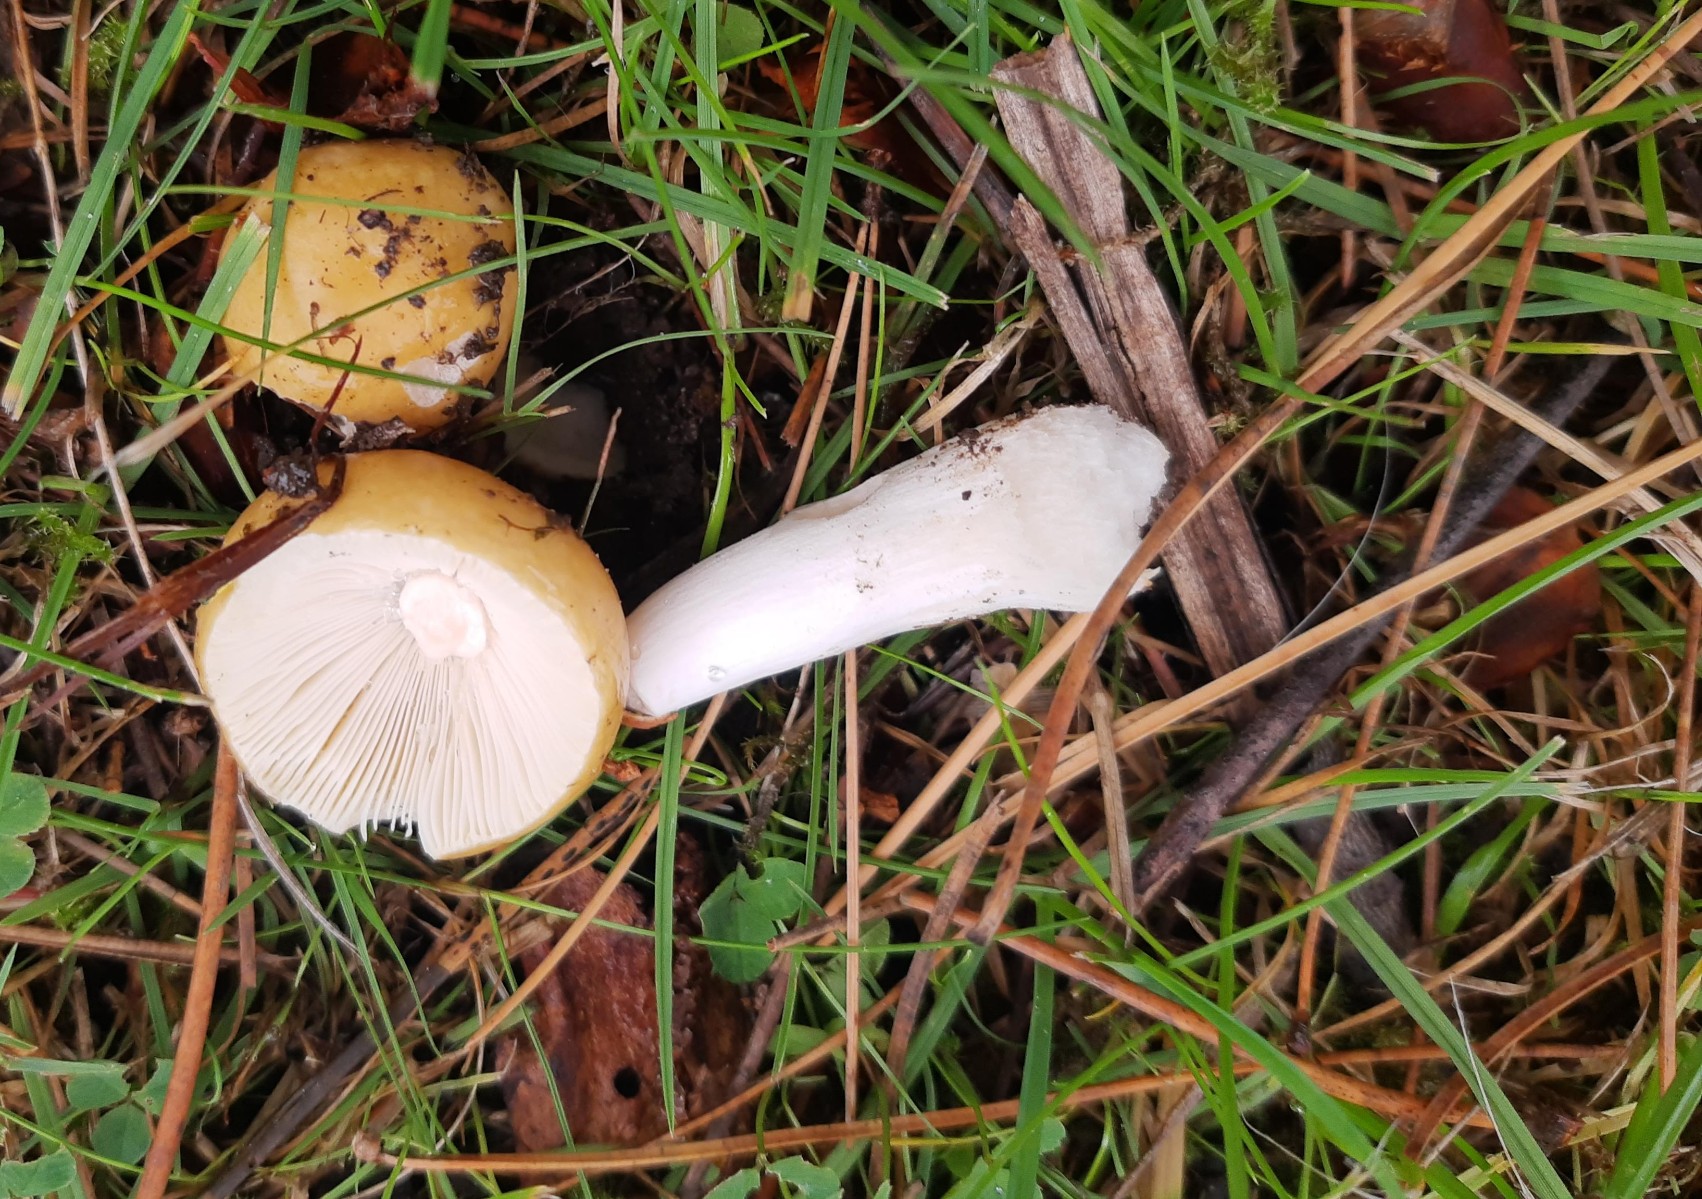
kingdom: Fungi
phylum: Basidiomycota
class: Agaricomycetes
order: Russulales
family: Russulaceae
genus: Russula
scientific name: Russula ochroleuca
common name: okkergul skørhat
